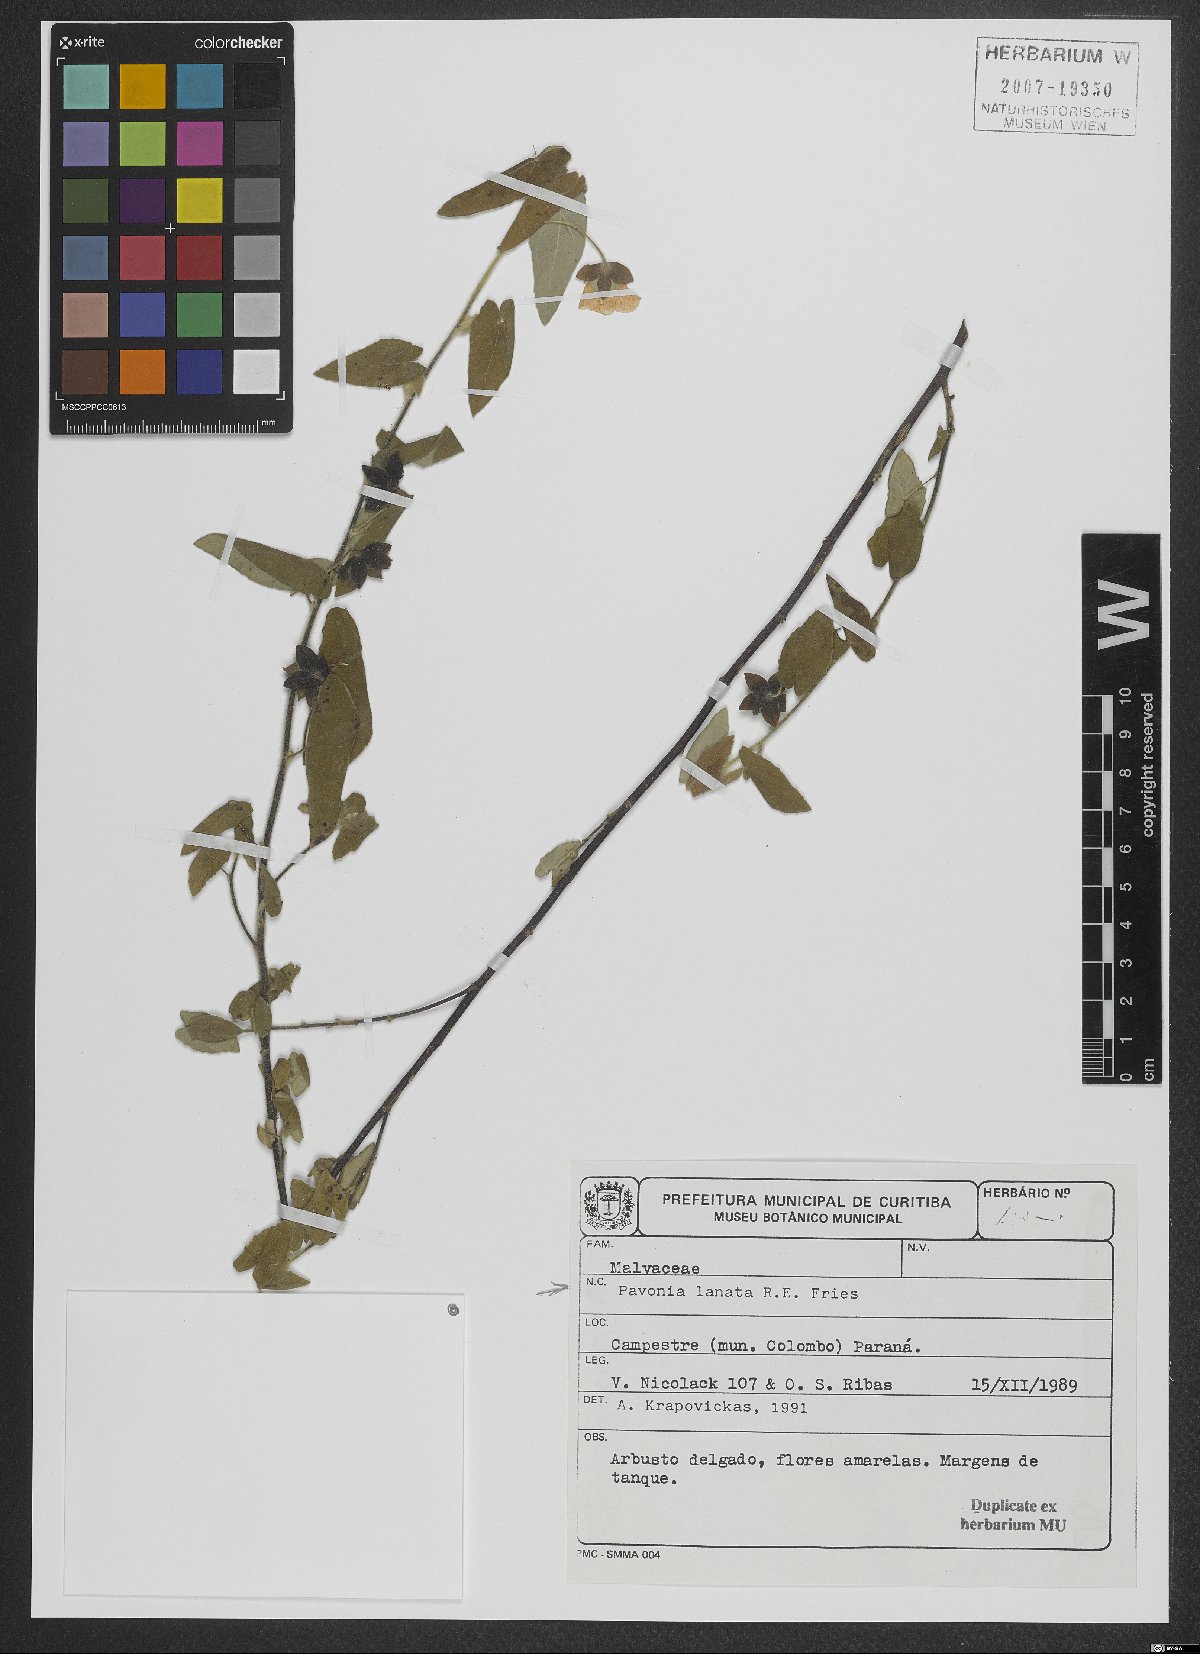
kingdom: Plantae
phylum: Tracheophyta
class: Magnoliopsida
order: Malvales
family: Malvaceae
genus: Pavonia
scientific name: Pavonia lanata
